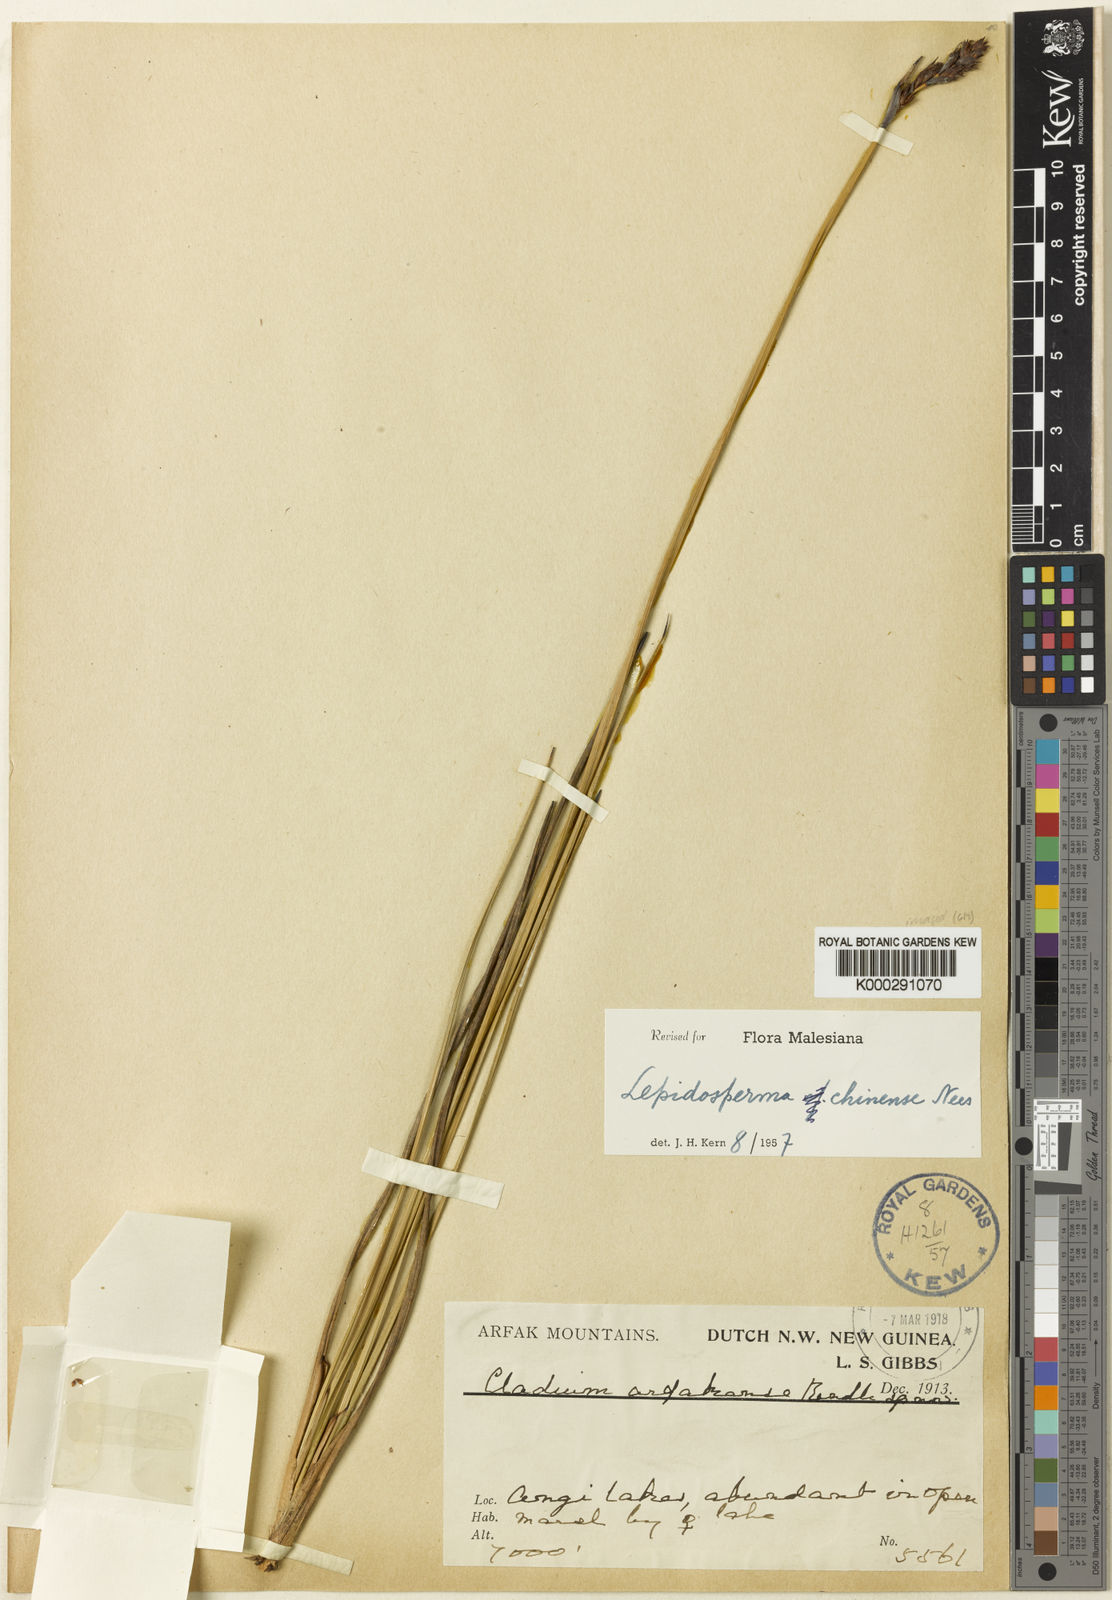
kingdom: Plantae
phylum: Tracheophyta
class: Liliopsida
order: Poales
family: Cyperaceae
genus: Lepidosperma
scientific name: Lepidosperma
